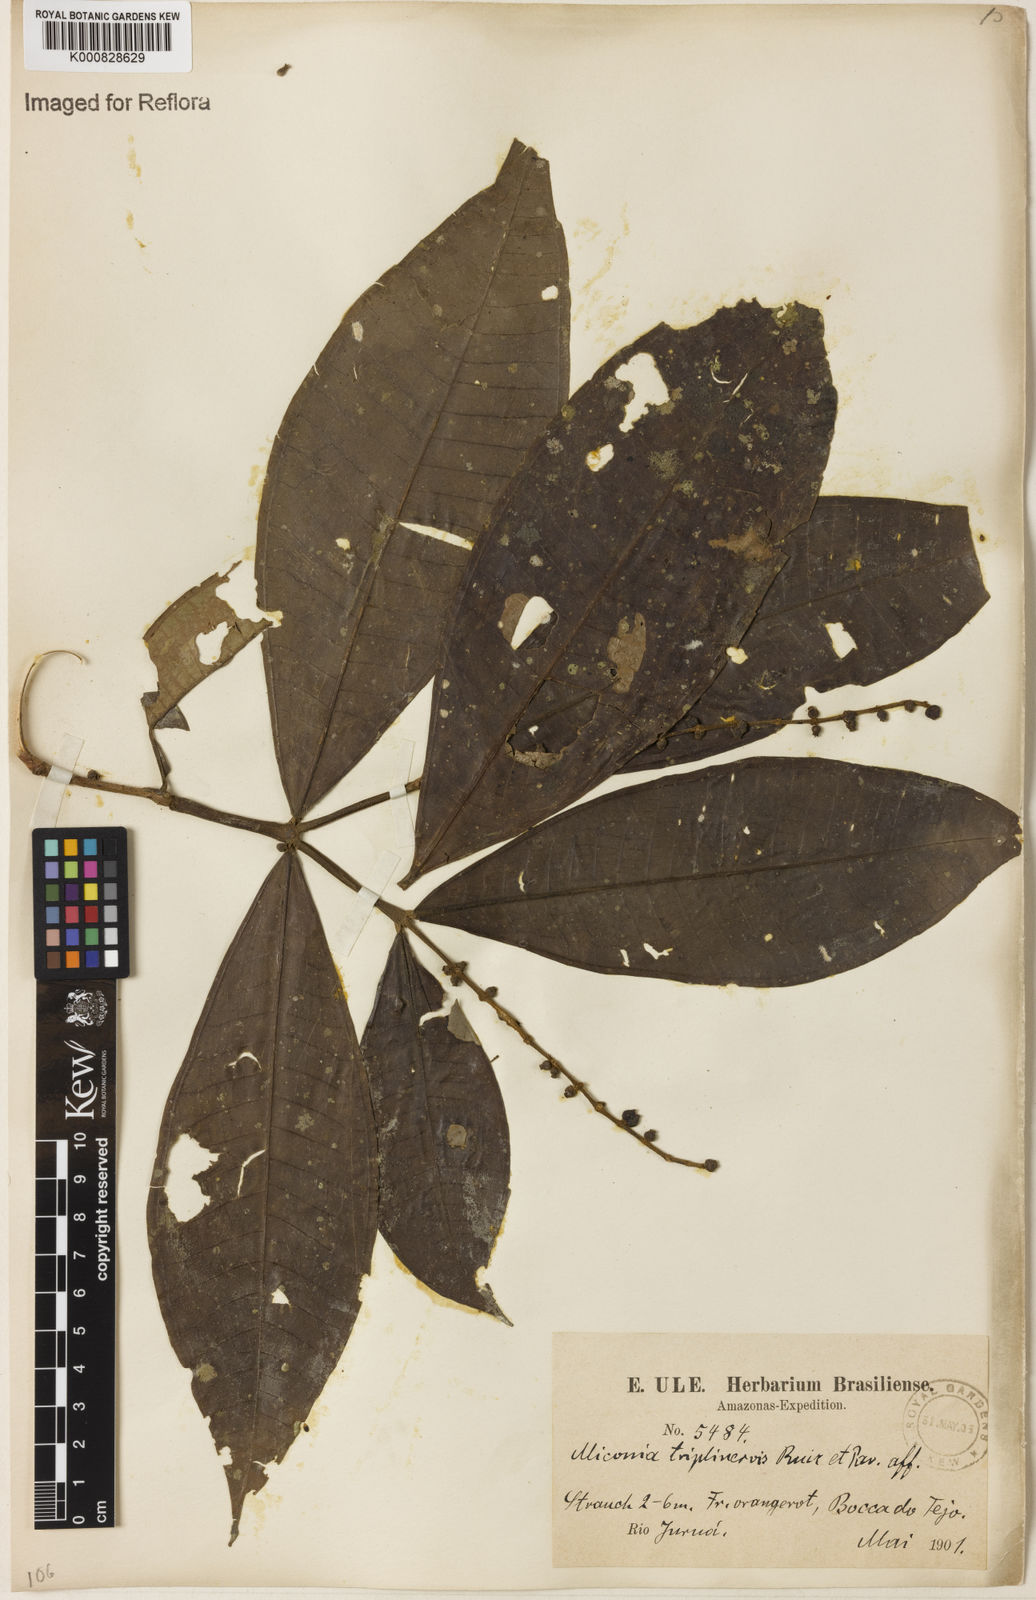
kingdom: Plantae
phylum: Tracheophyta
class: Magnoliopsida
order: Myrtales
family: Melastomataceae
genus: Miconia
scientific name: Miconia triplinervis
